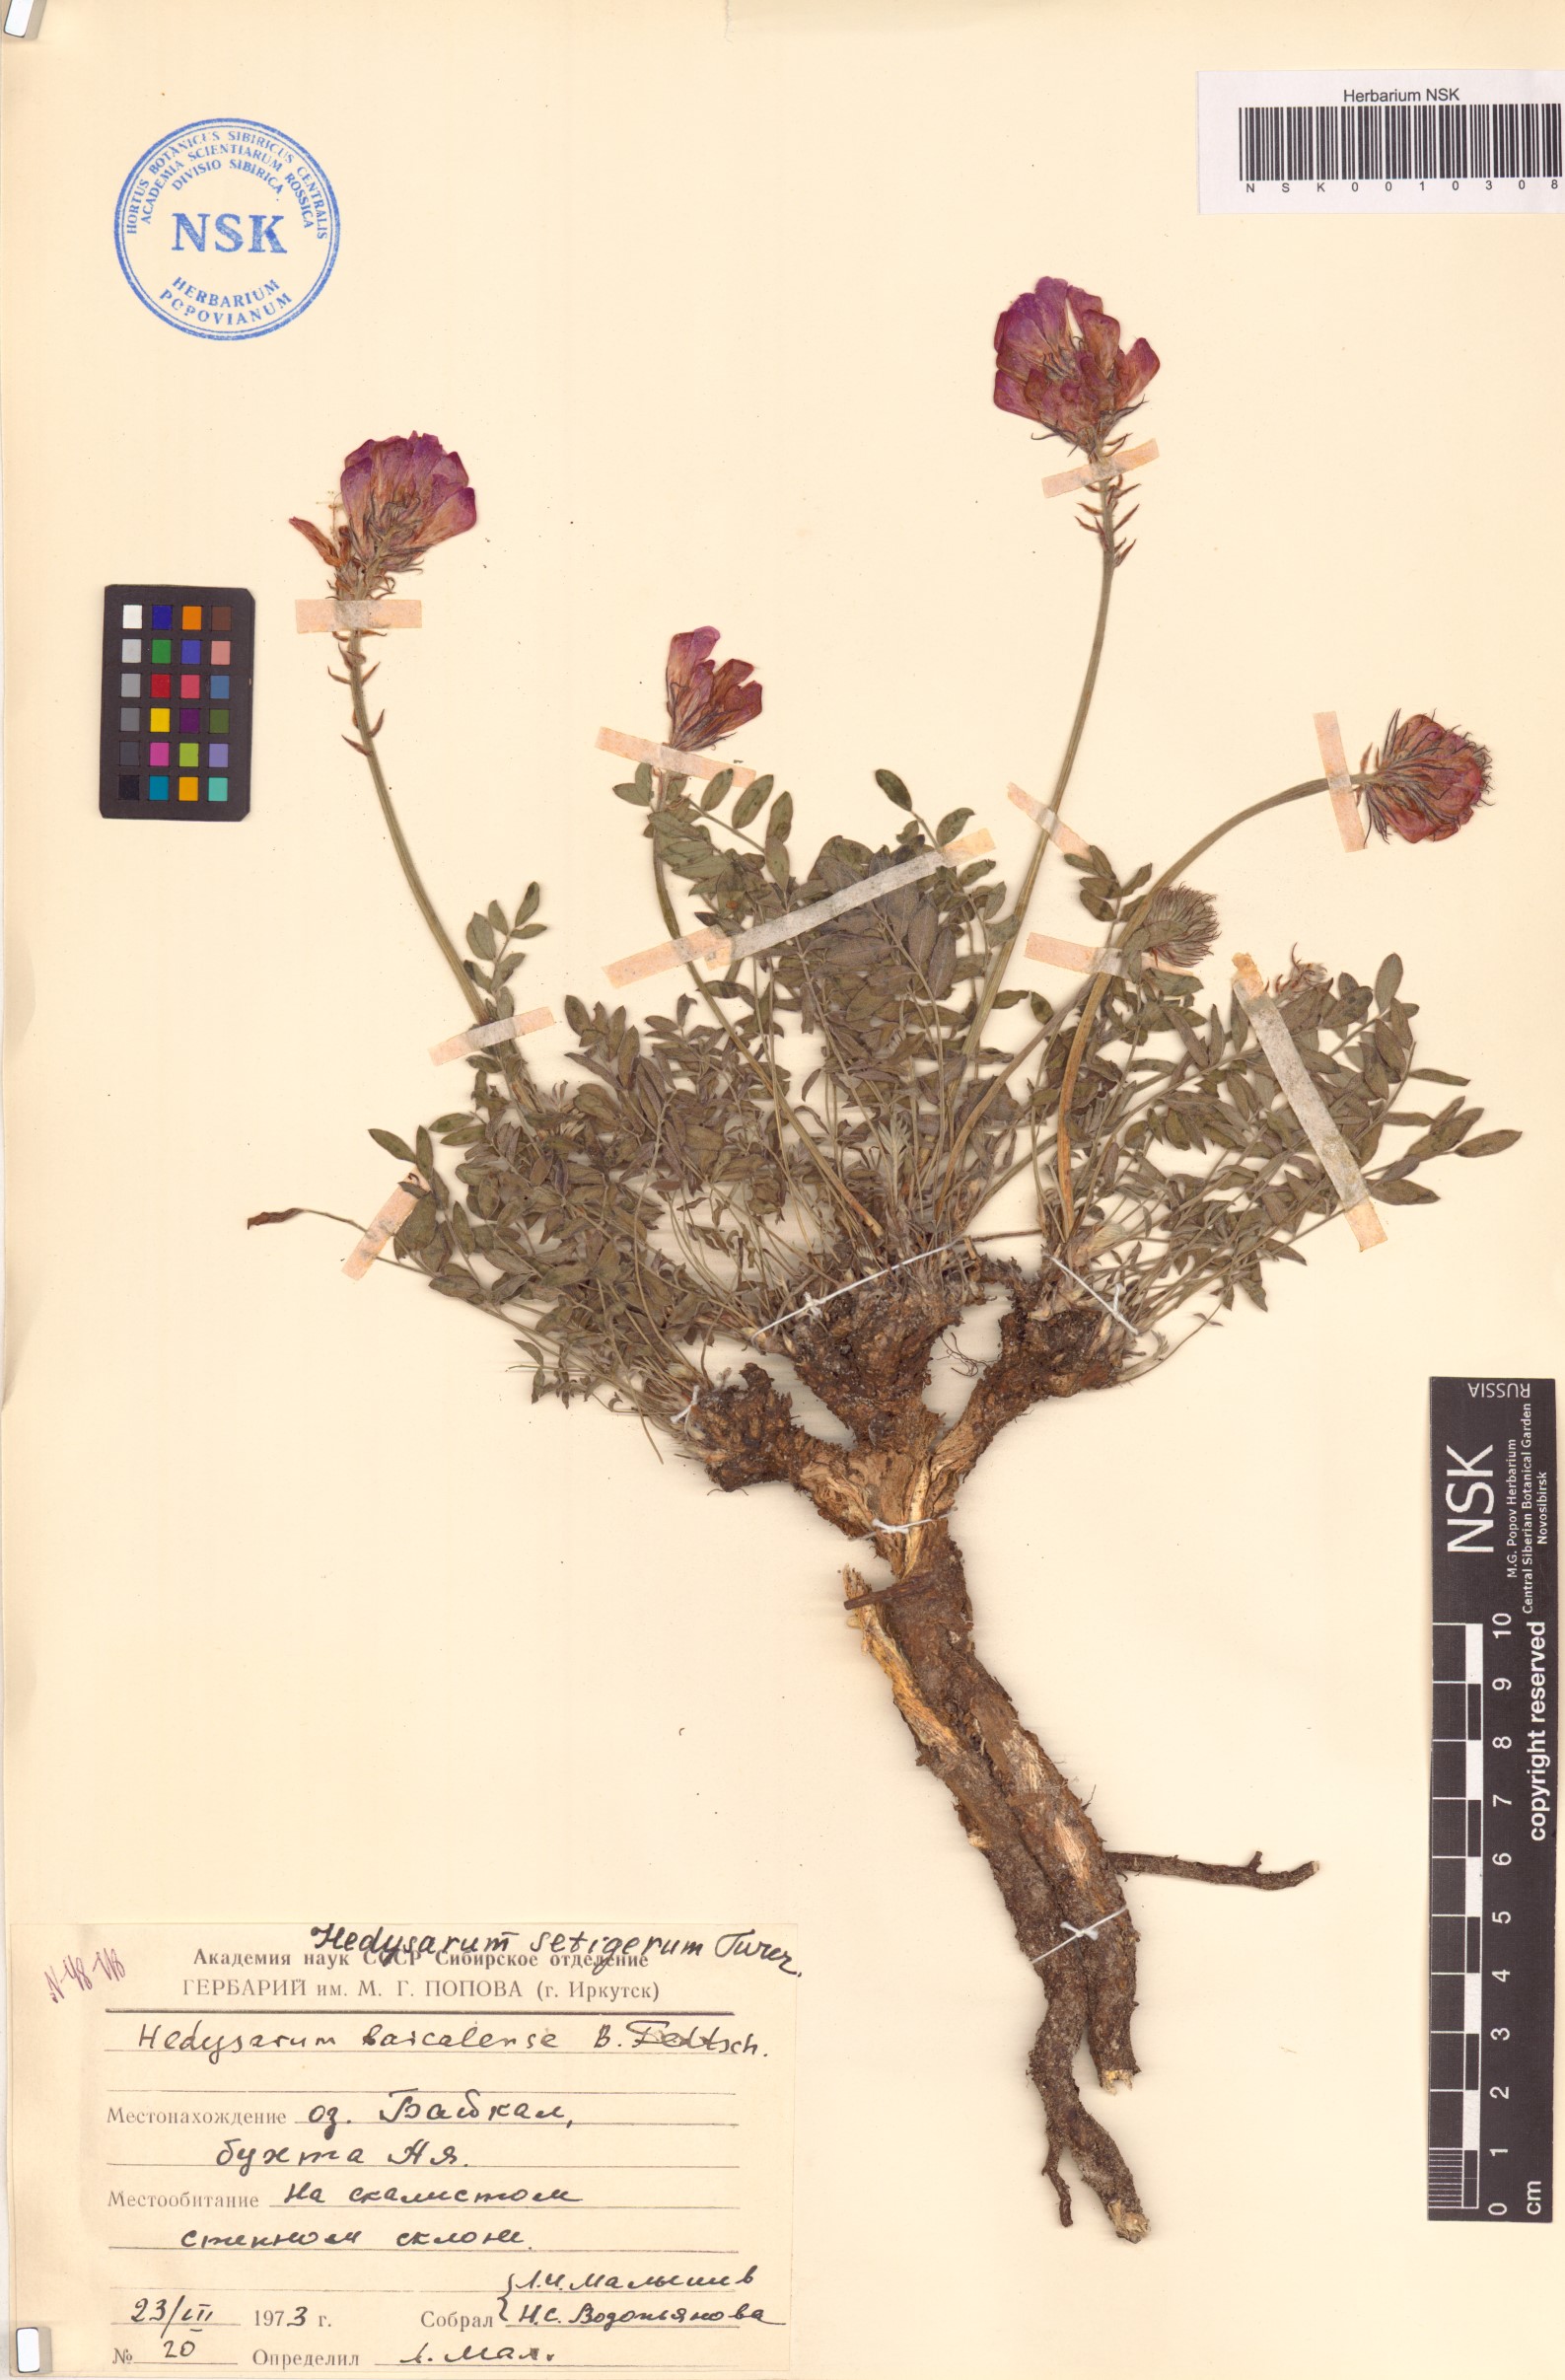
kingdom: Plantae
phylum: Tracheophyta
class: Magnoliopsida
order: Fabales
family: Fabaceae
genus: Hedysarum
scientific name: Hedysarum setigerum
